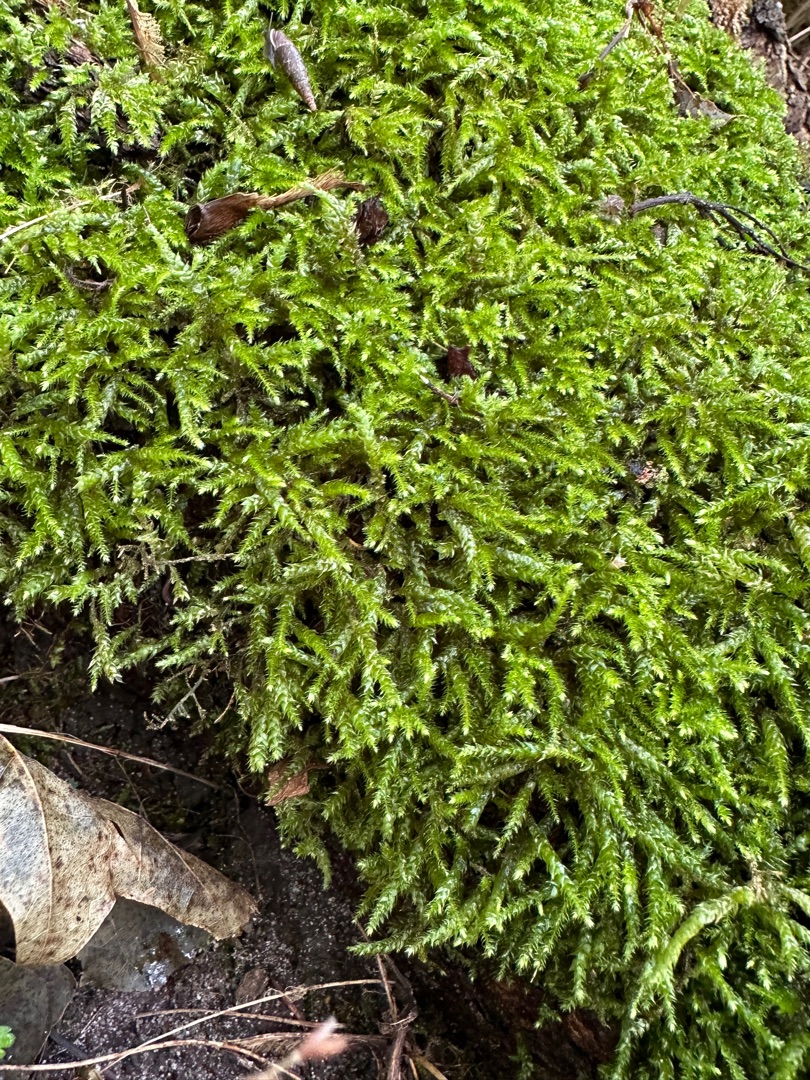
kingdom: Plantae
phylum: Bryophyta
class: Bryopsida
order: Hypnales
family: Brachytheciaceae
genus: Brachythecium
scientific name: Brachythecium rutabulum
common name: Almindelig kortkapsel
